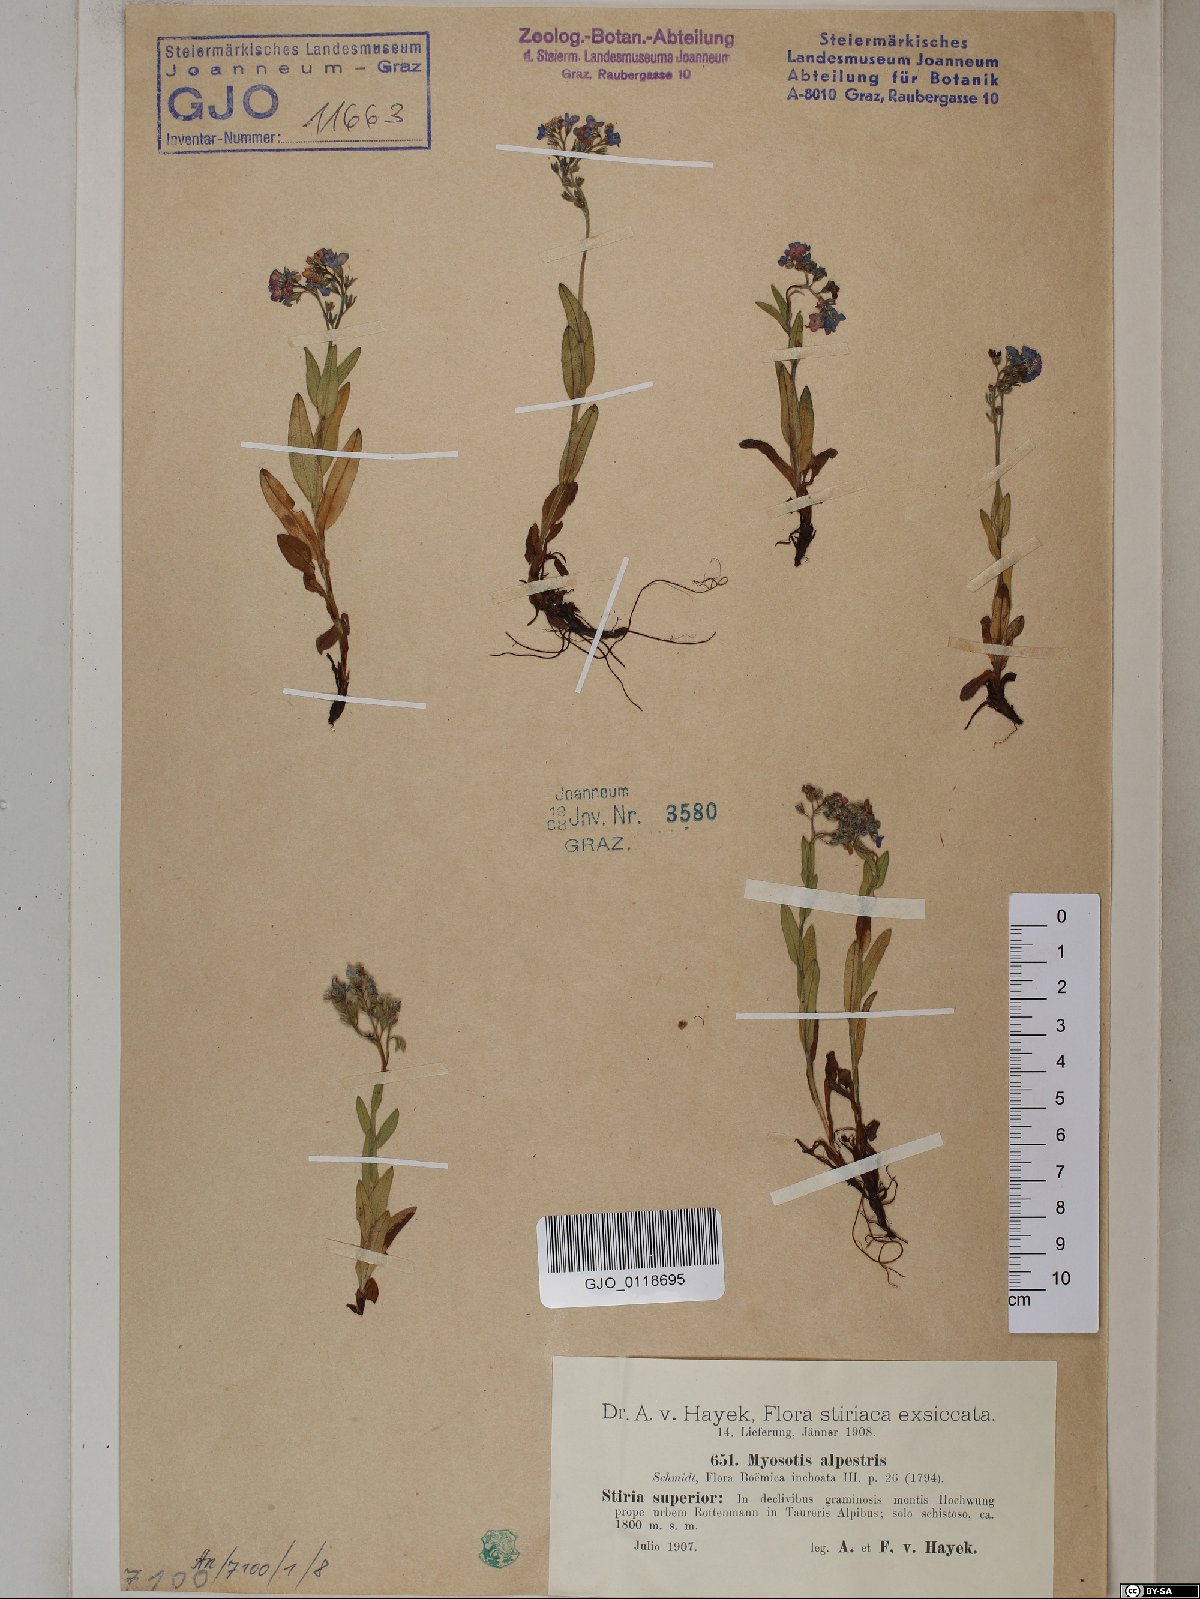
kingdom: Plantae
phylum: Tracheophyta
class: Magnoliopsida
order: Boraginales
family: Boraginaceae
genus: Myosotis
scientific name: Myosotis alpestris
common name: Alpine forget-me-not
